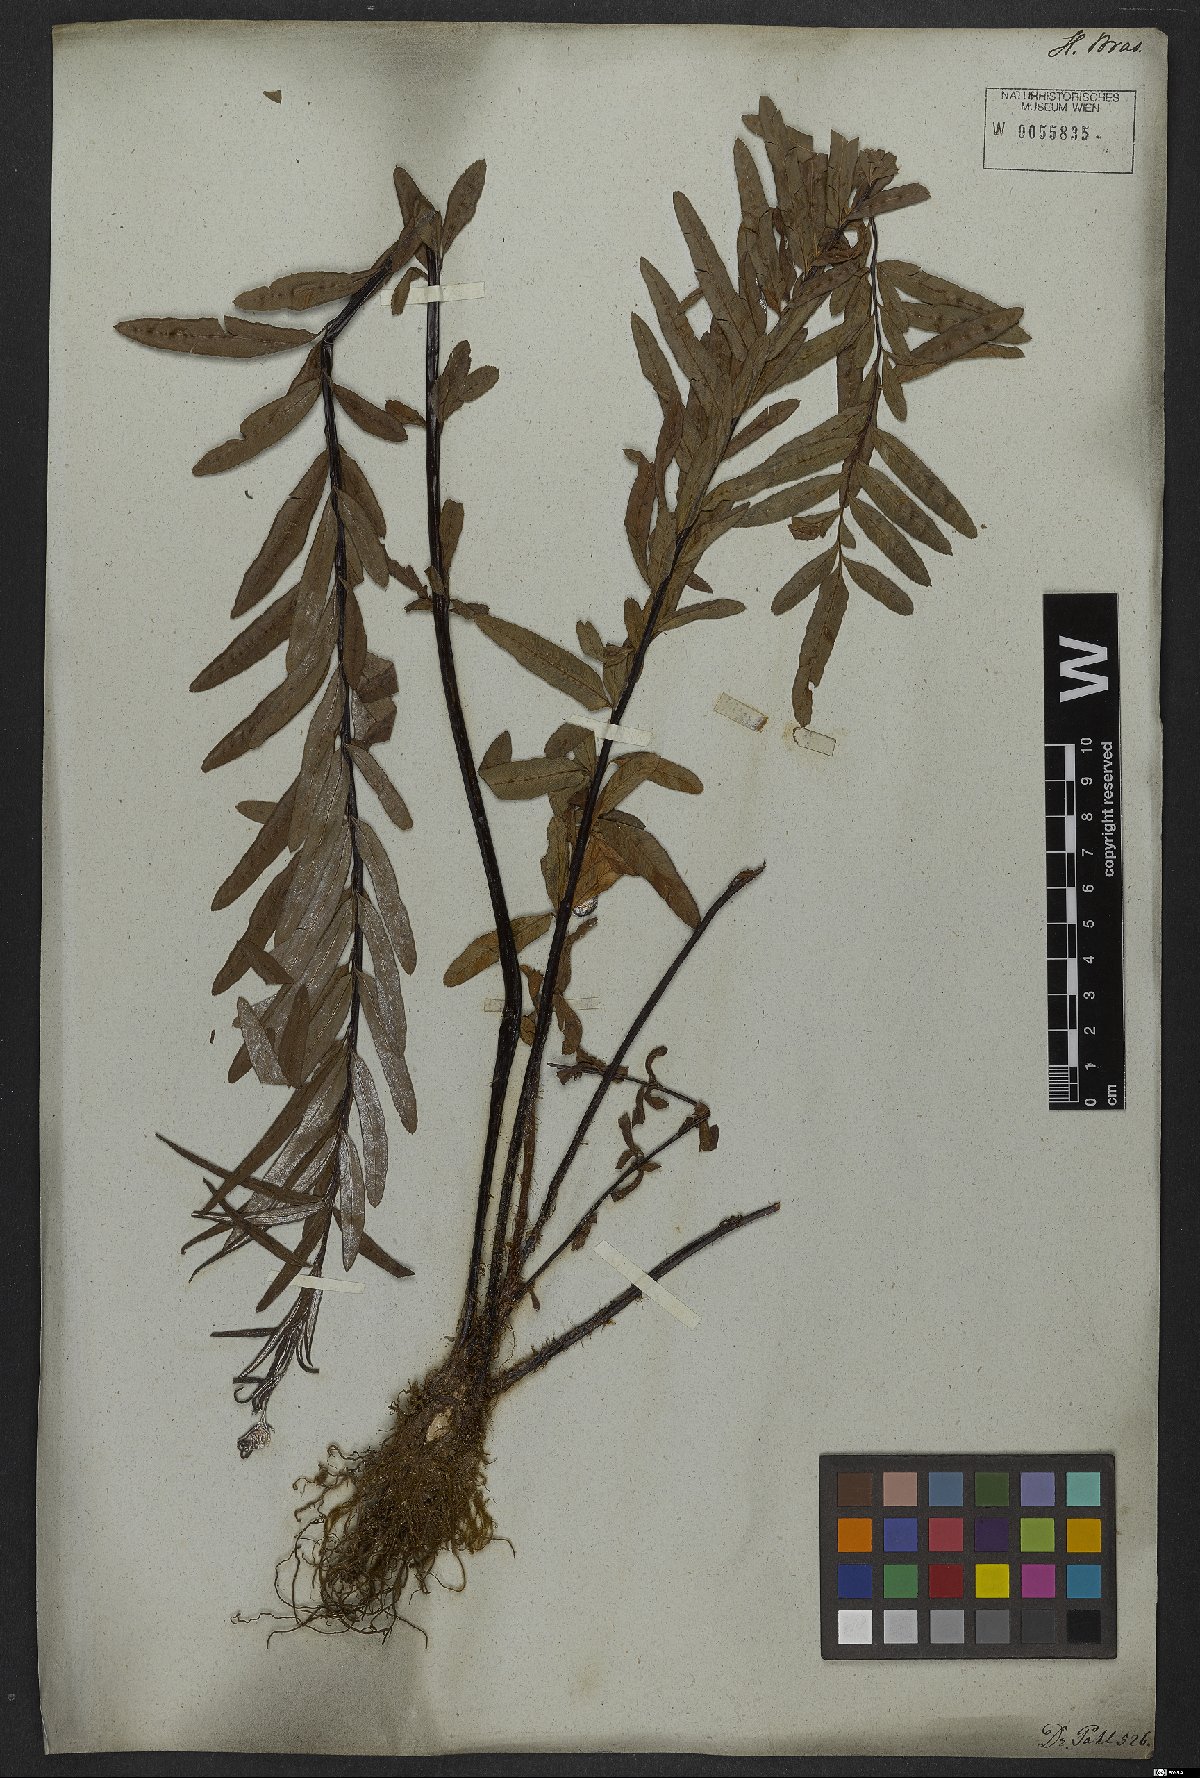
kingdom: Plantae
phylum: Tracheophyta
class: Polypodiopsida
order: Polypodiales
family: Pteridaceae
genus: Pityrogramma
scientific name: Pityrogramma trifoliata
